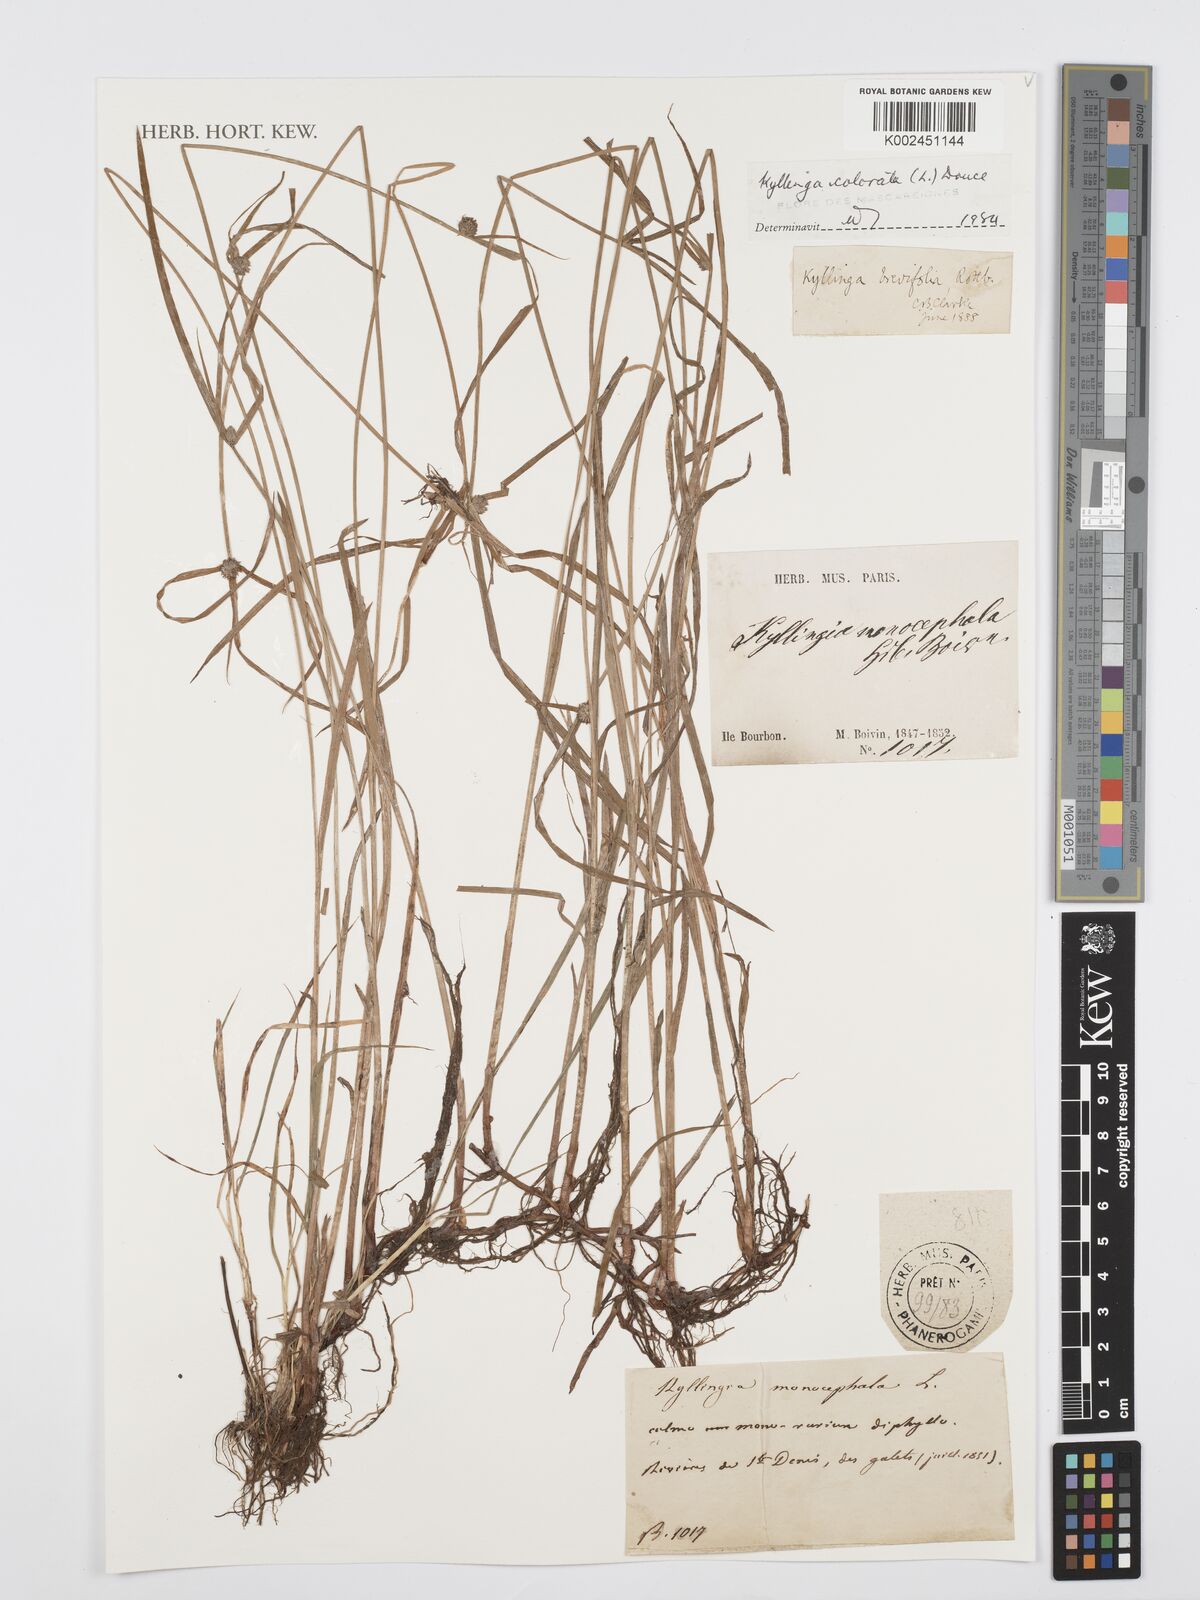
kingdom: Plantae
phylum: Tracheophyta
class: Liliopsida
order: Poales
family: Cyperaceae
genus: Cyperus
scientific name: Cyperus
